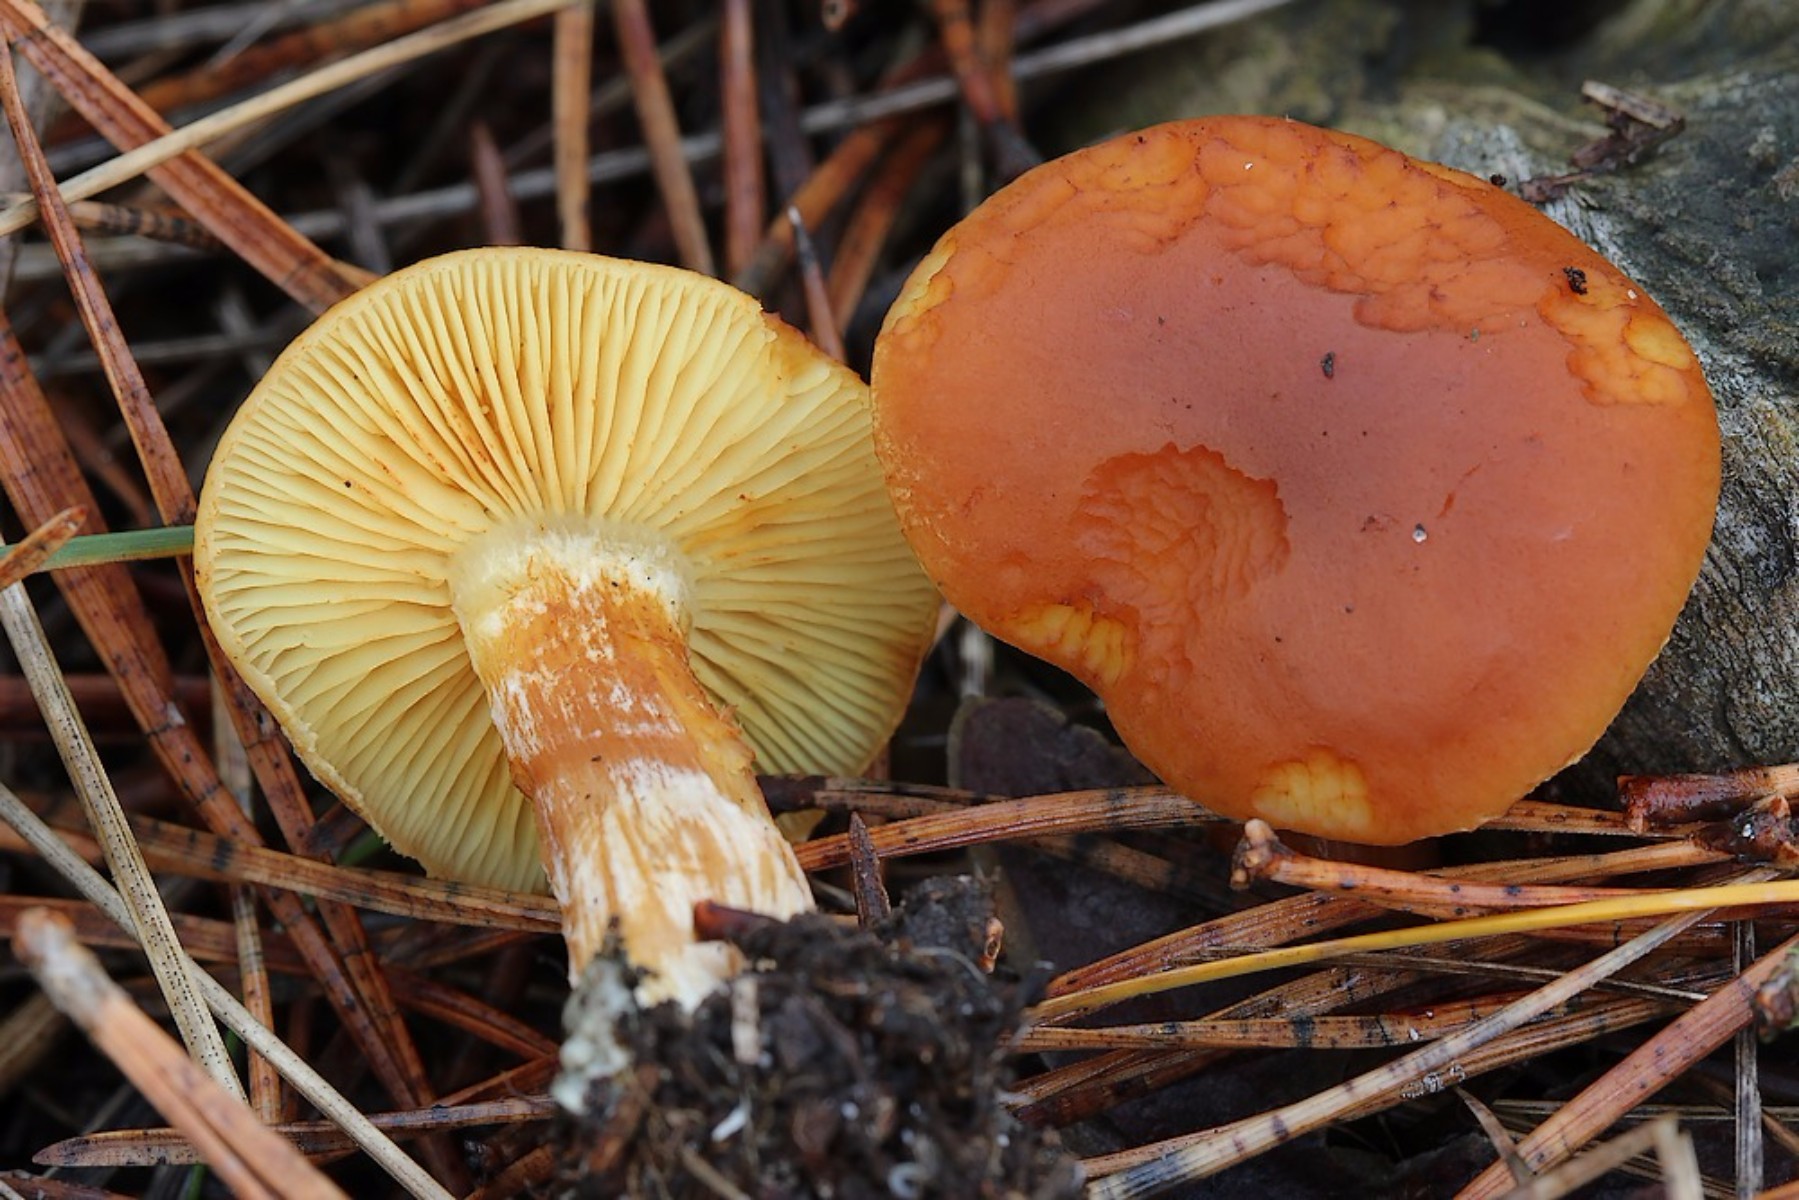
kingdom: Fungi
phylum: Basidiomycota
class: Agaricomycetes
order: Agaricales
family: Hymenogastraceae
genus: Gymnopilus
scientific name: Gymnopilus
